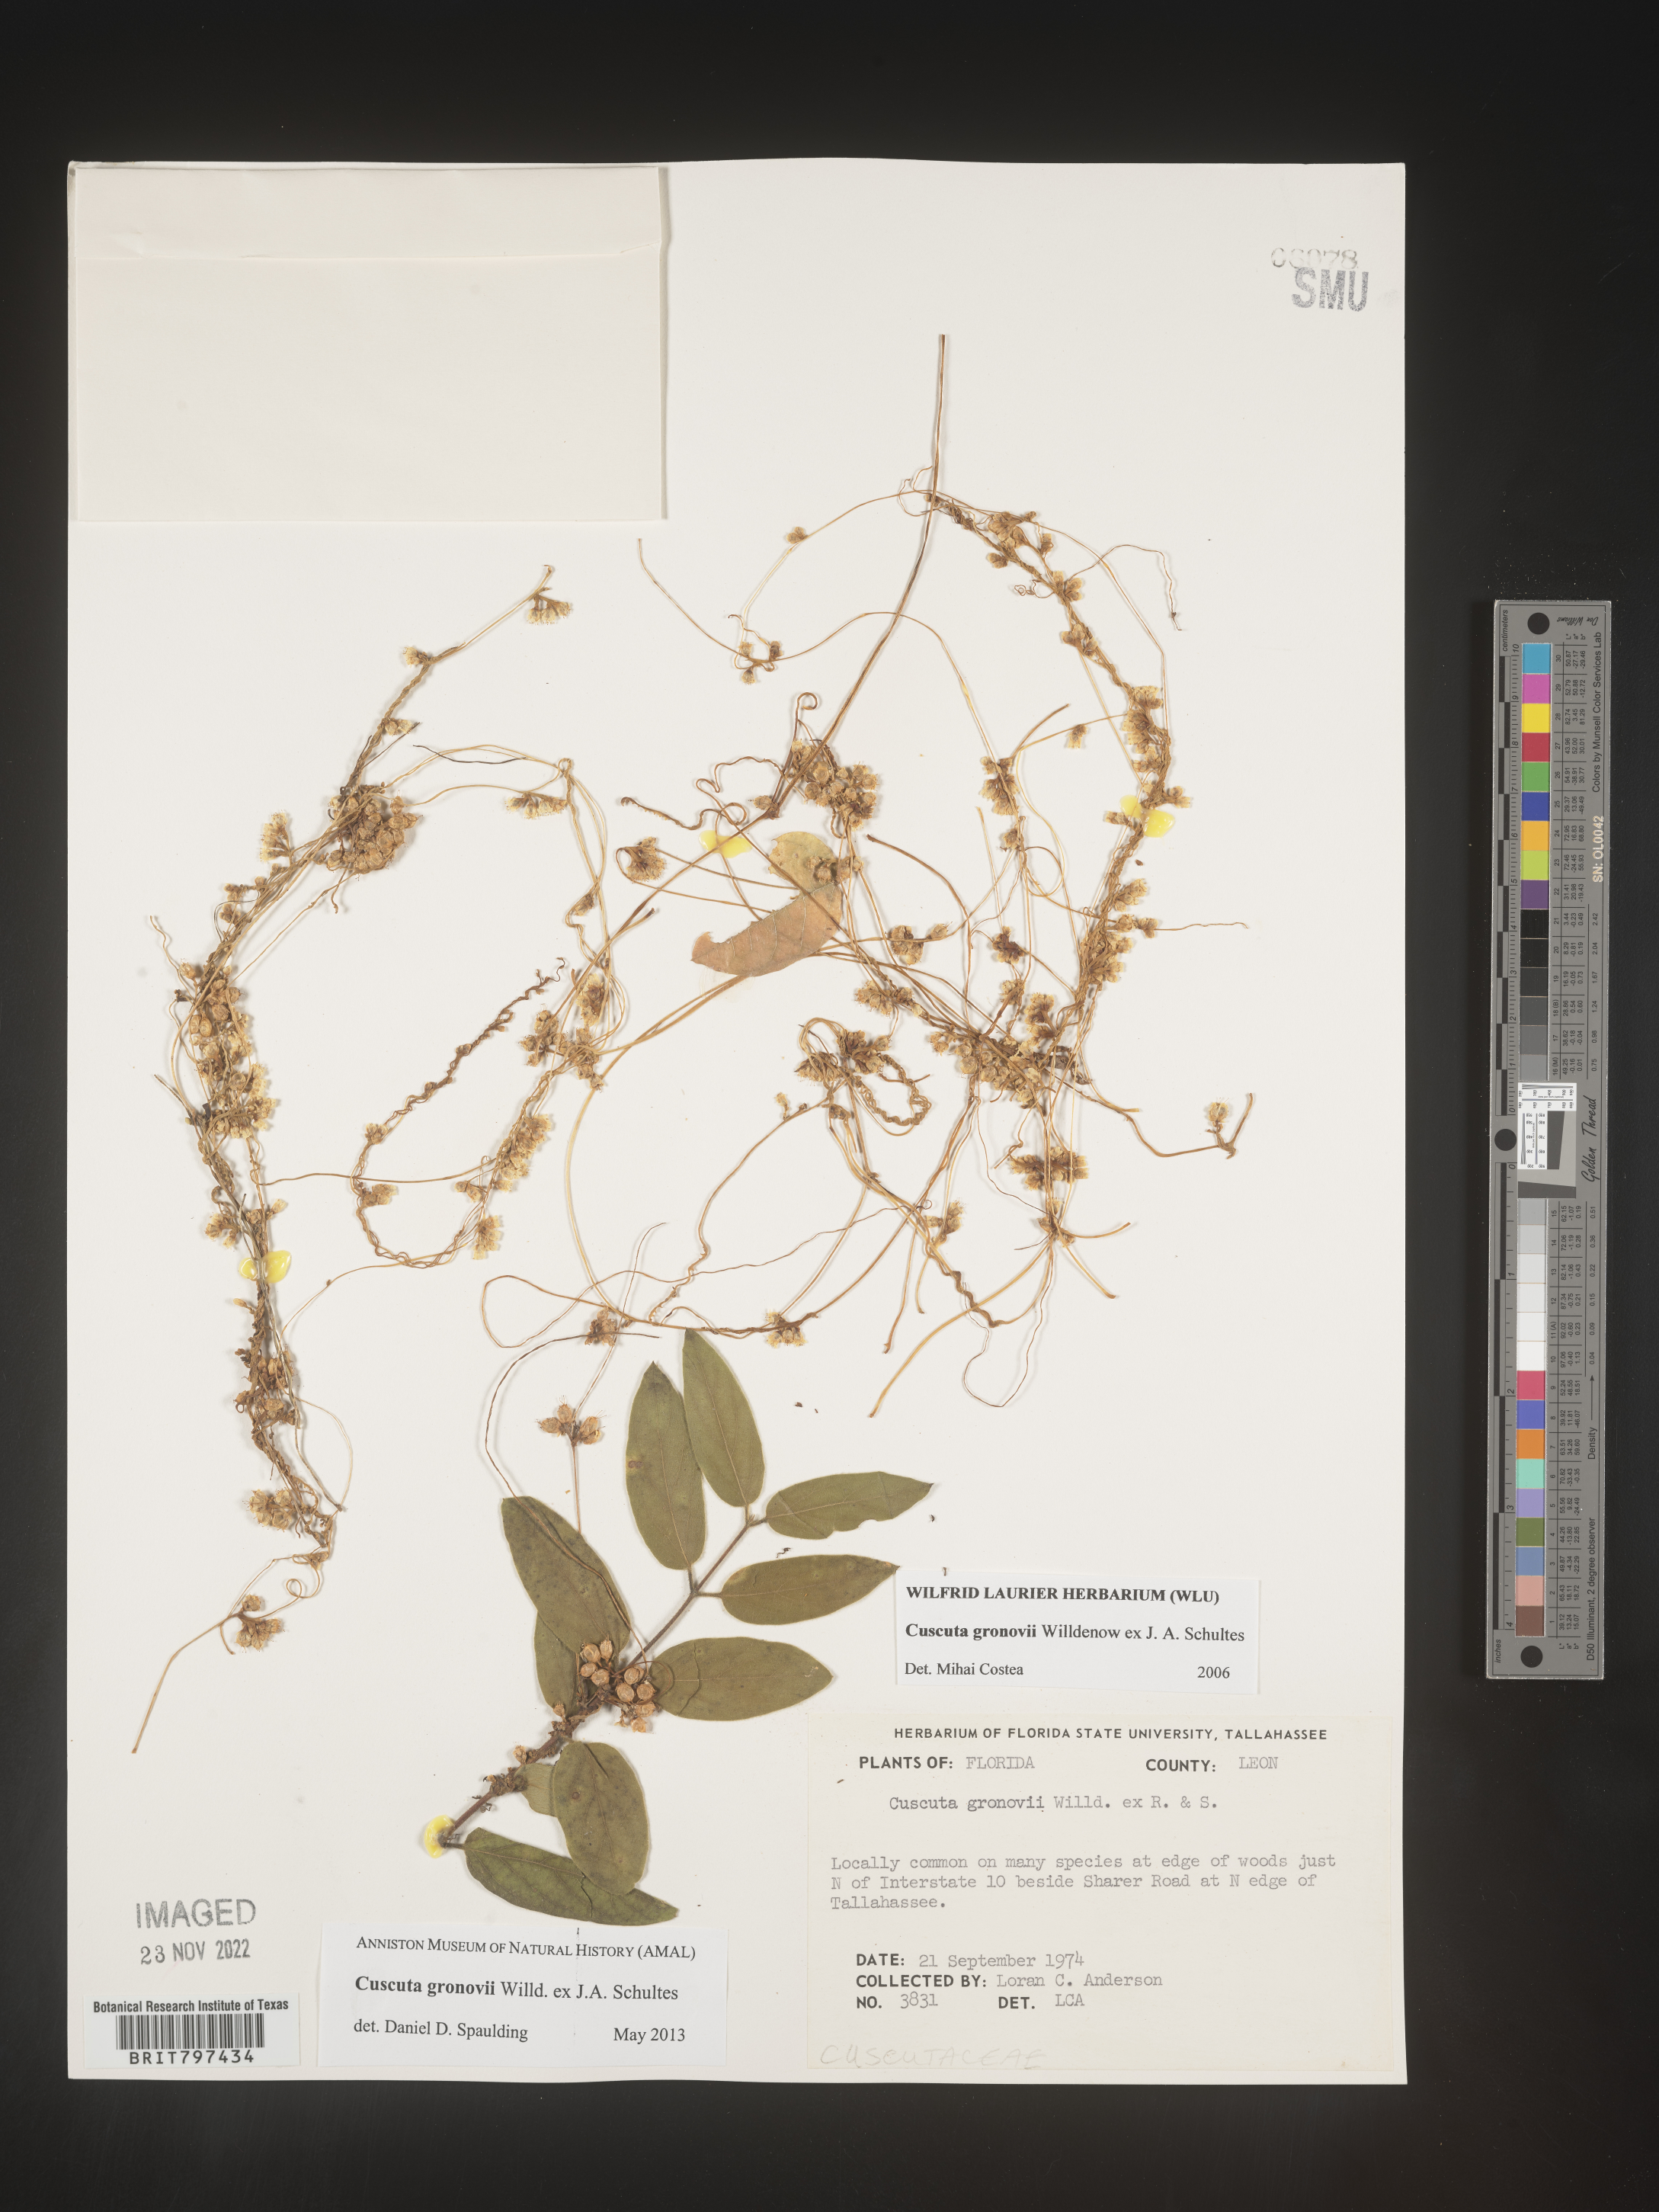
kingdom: Plantae
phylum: Tracheophyta
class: Magnoliopsida
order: Solanales
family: Convolvulaceae
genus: Cuscuta
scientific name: Cuscuta gronovii
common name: Common dodder
